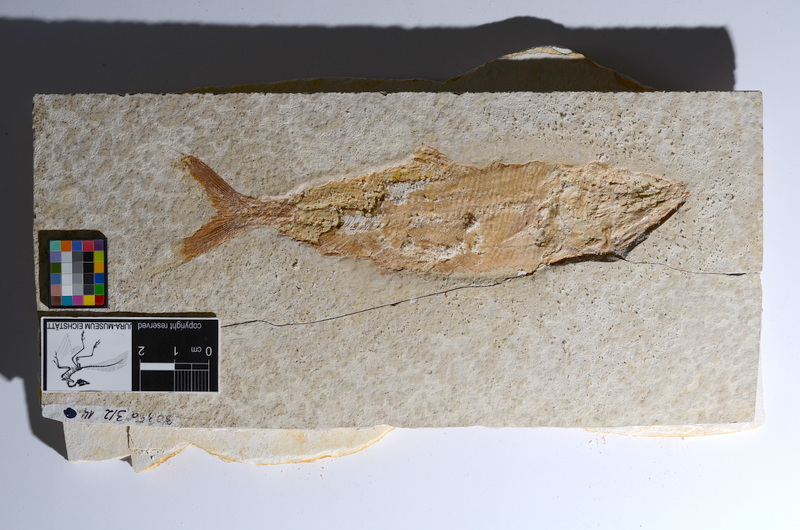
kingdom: Animalia
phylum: Chordata
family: Ankylophoridae
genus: Siemensichthys
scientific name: Siemensichthys macrocephalus
